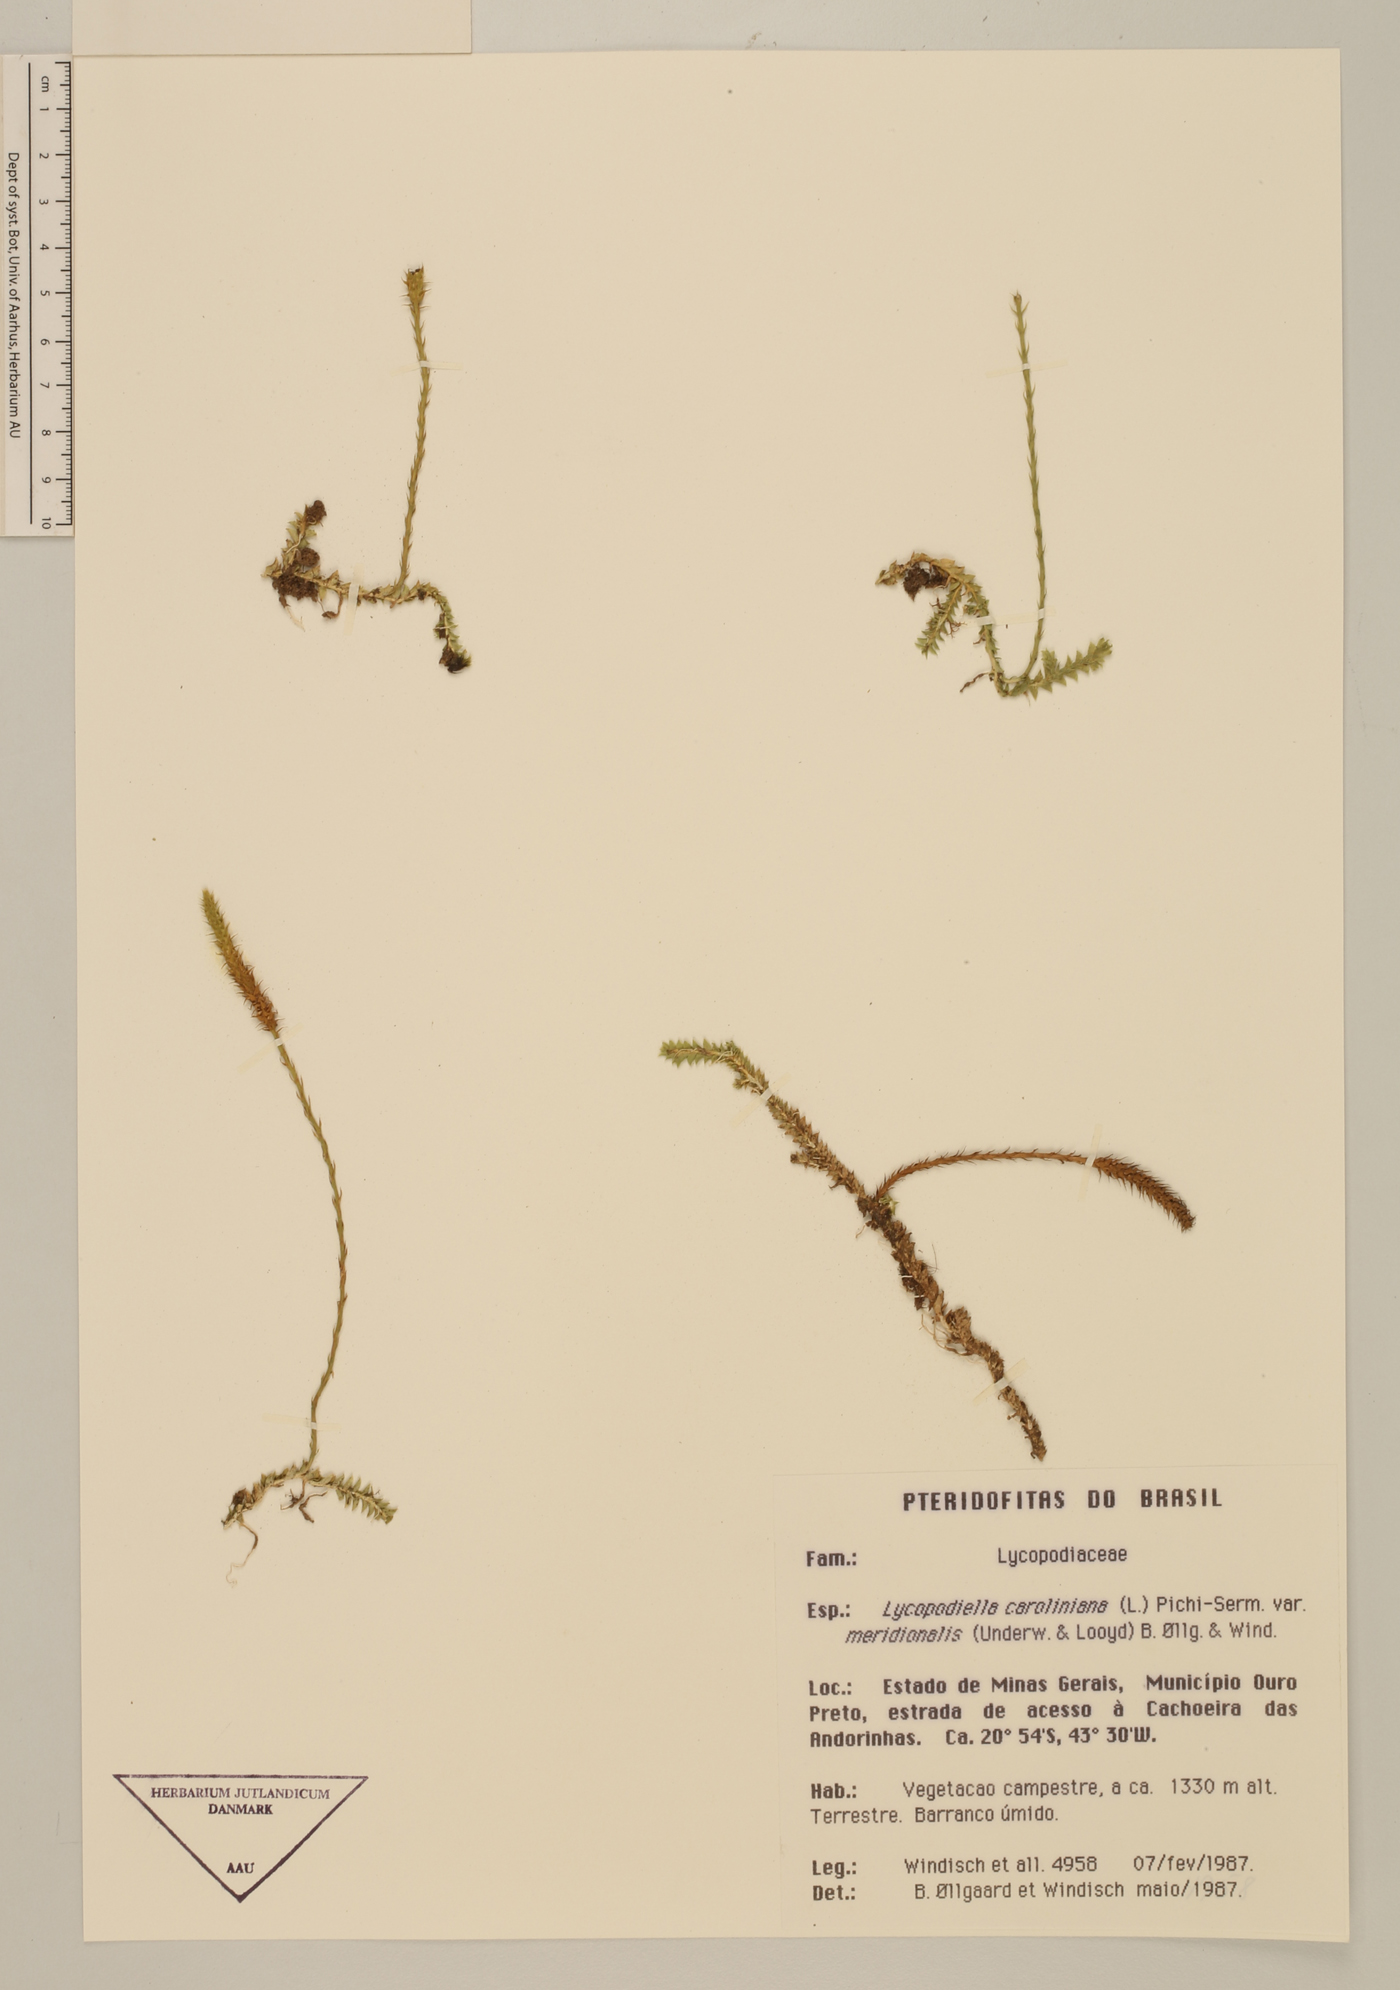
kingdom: Plantae
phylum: Tracheophyta
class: Lycopodiopsida
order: Lycopodiales
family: Lycopodiaceae
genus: Pseudolycopodiella
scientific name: Pseudolycopodiella paradoxa
